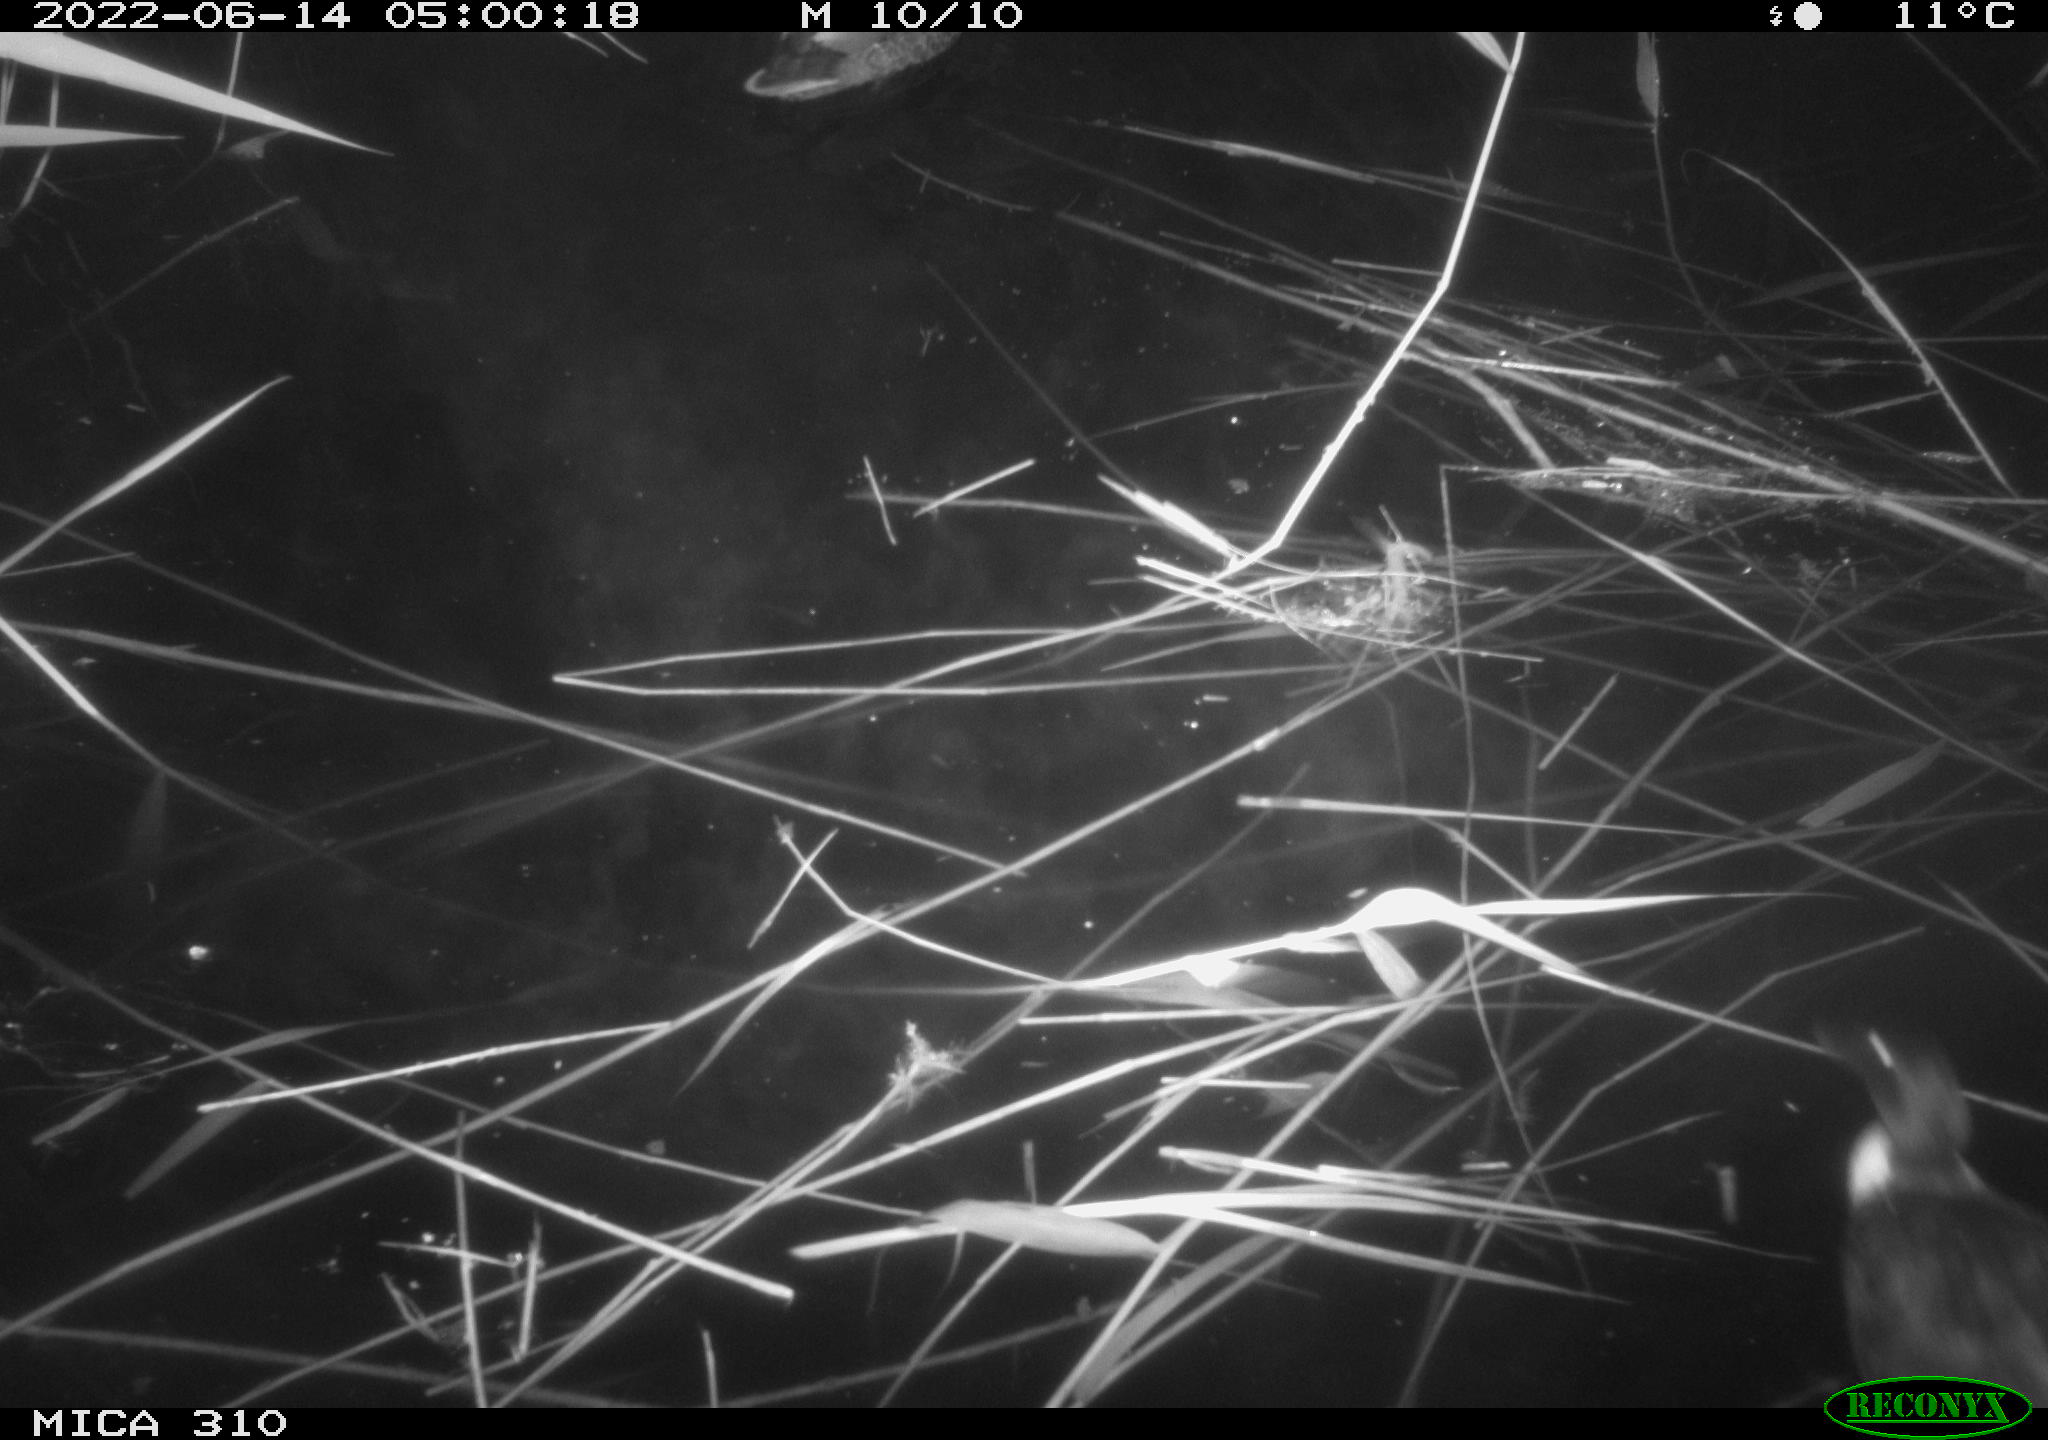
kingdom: Animalia
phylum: Chordata
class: Aves
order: Anseriformes
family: Anatidae
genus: Mareca
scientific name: Mareca strepera
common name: Gadwall
